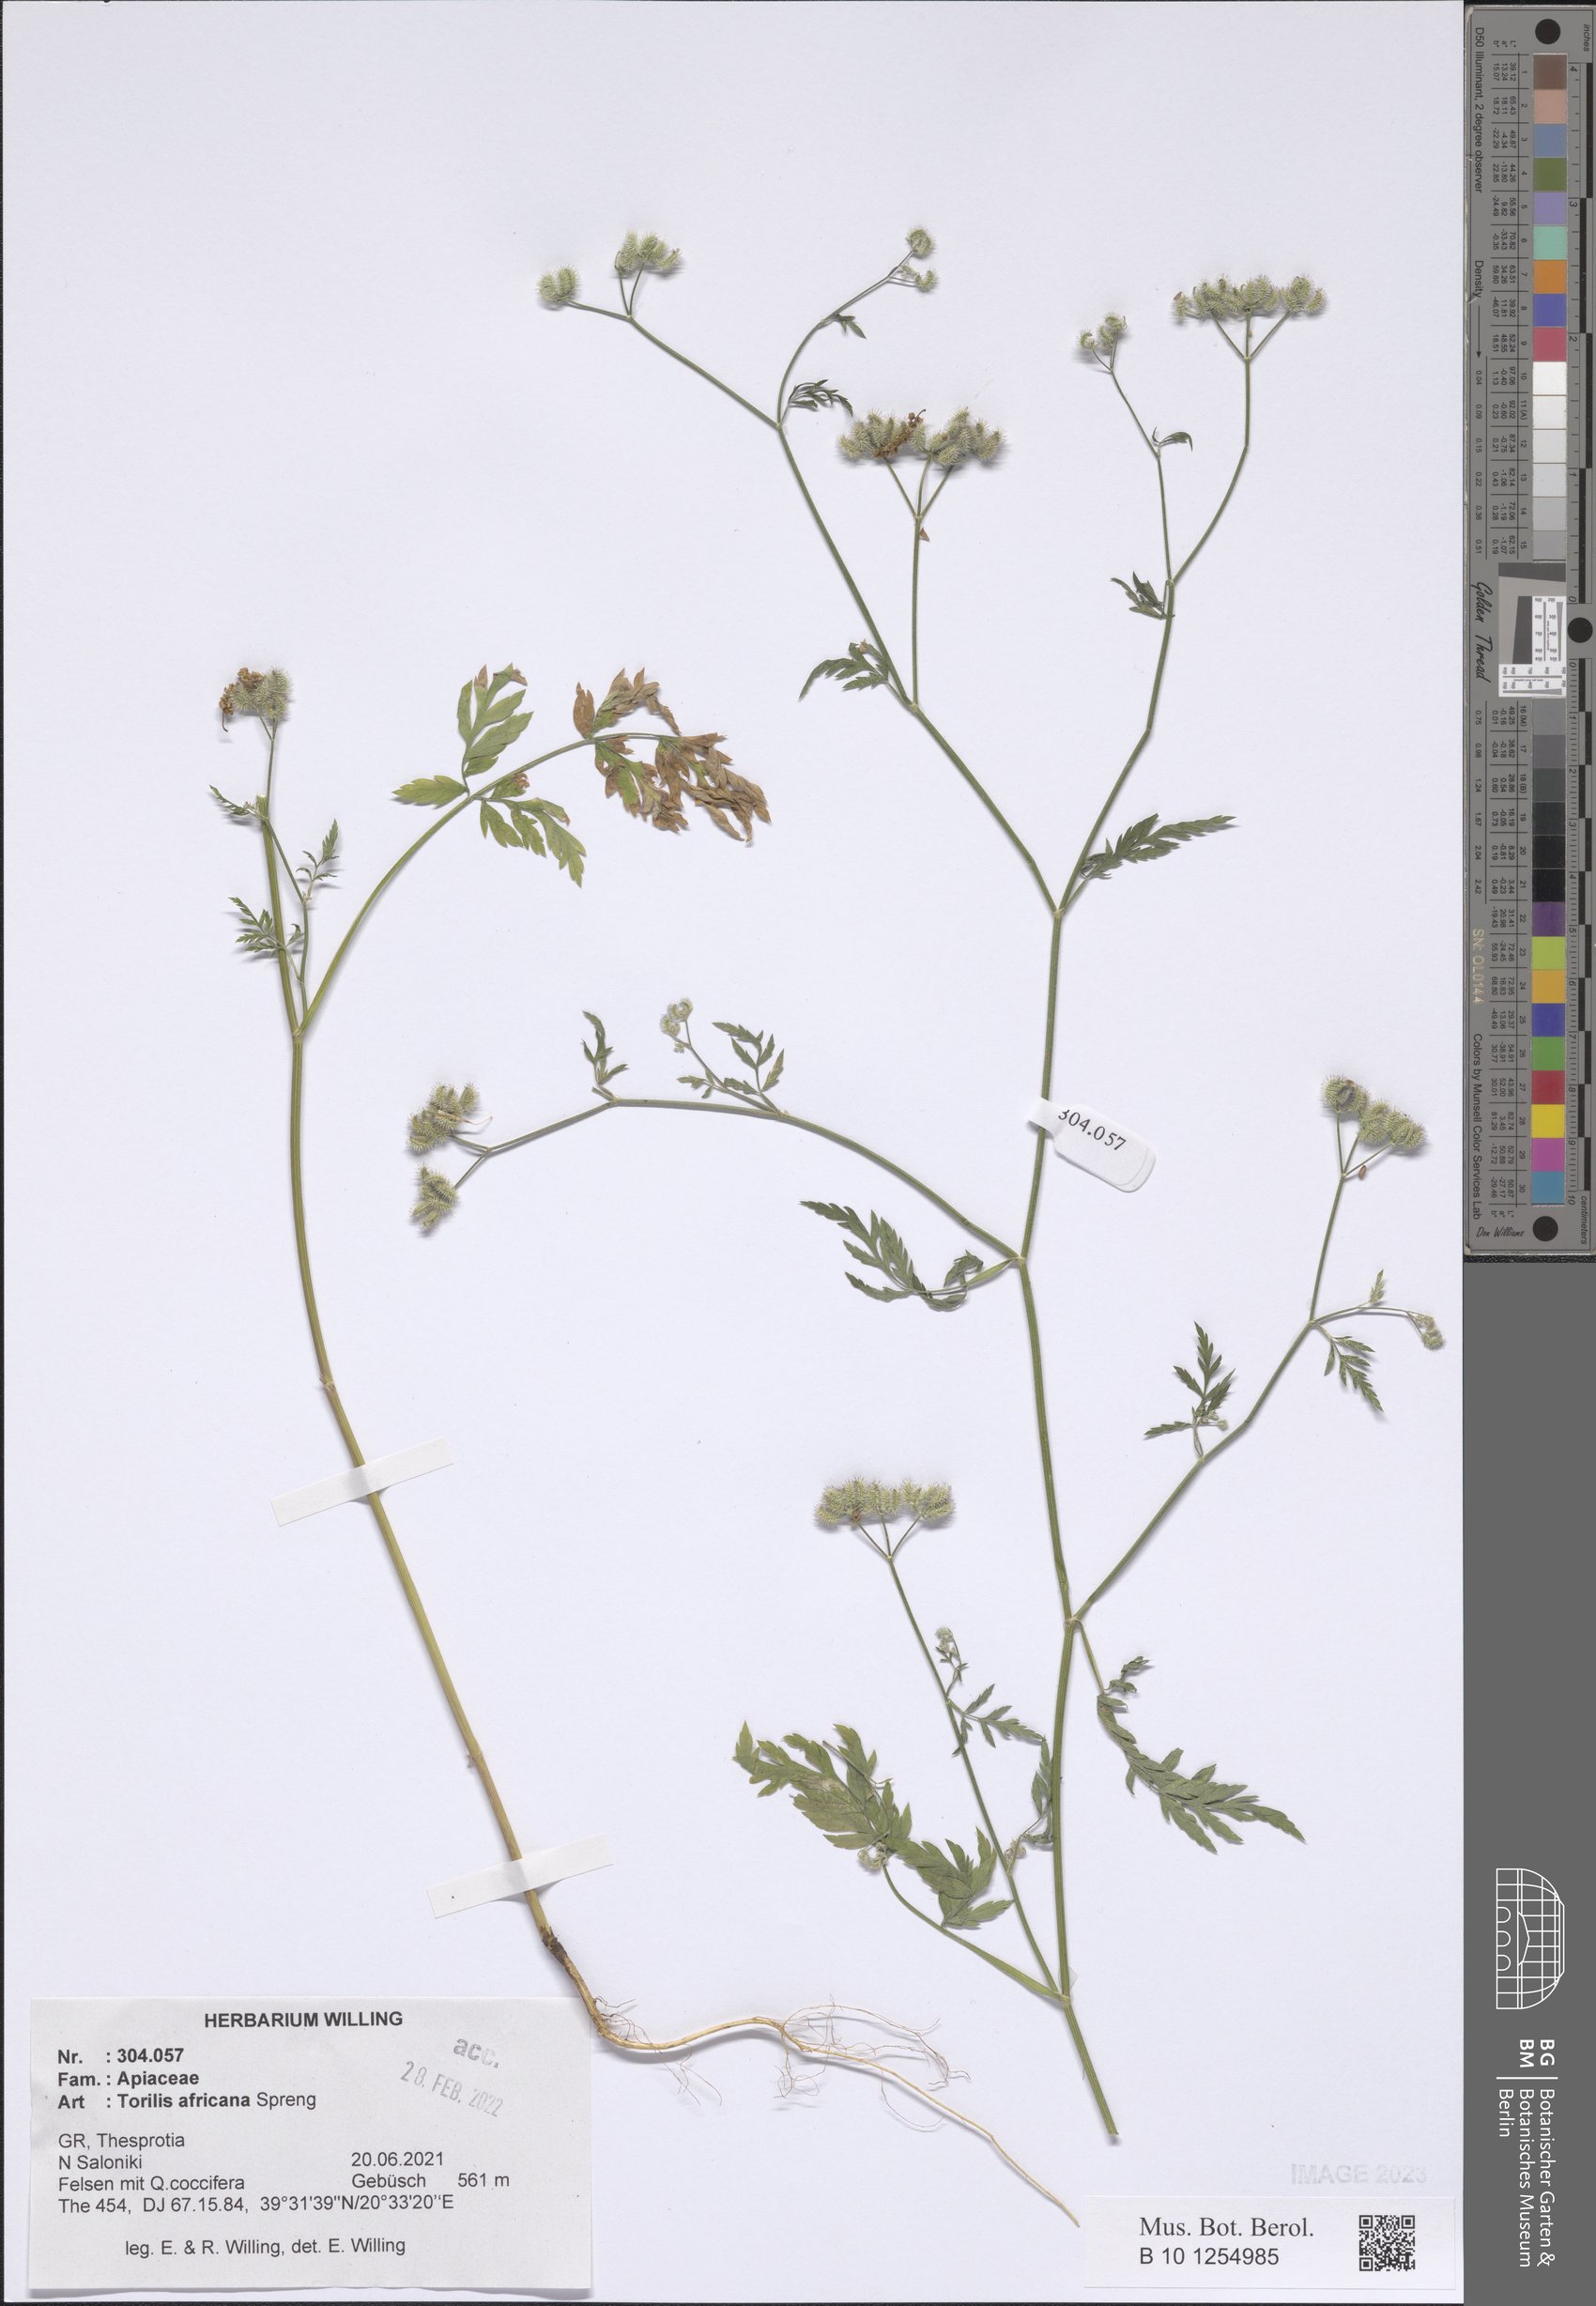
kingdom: Plantae
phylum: Tracheophyta
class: Magnoliopsida
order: Apiales
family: Apiaceae
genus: Torilis
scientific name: Torilis africana
